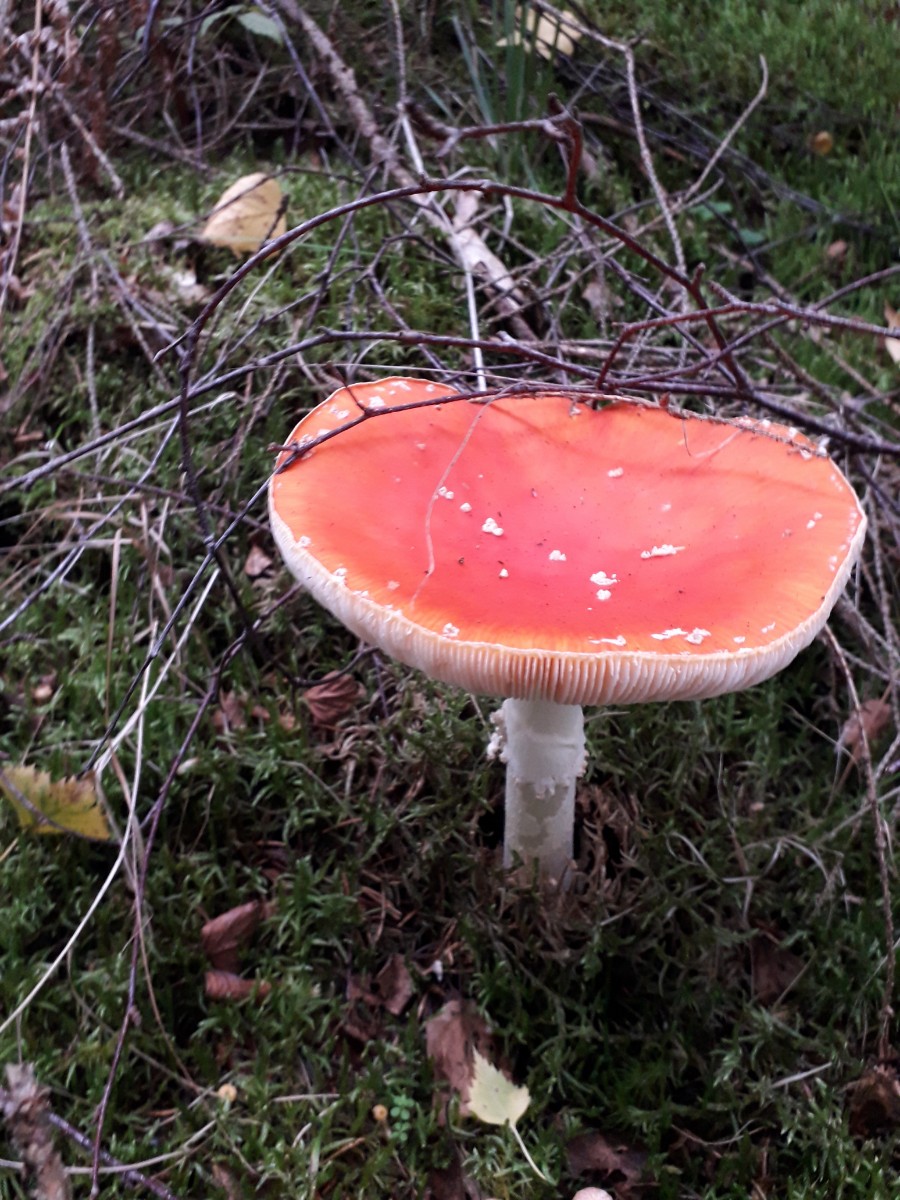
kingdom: Fungi
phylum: Basidiomycota
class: Agaricomycetes
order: Agaricales
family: Amanitaceae
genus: Amanita
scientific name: Amanita muscaria
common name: rød fluesvamp
